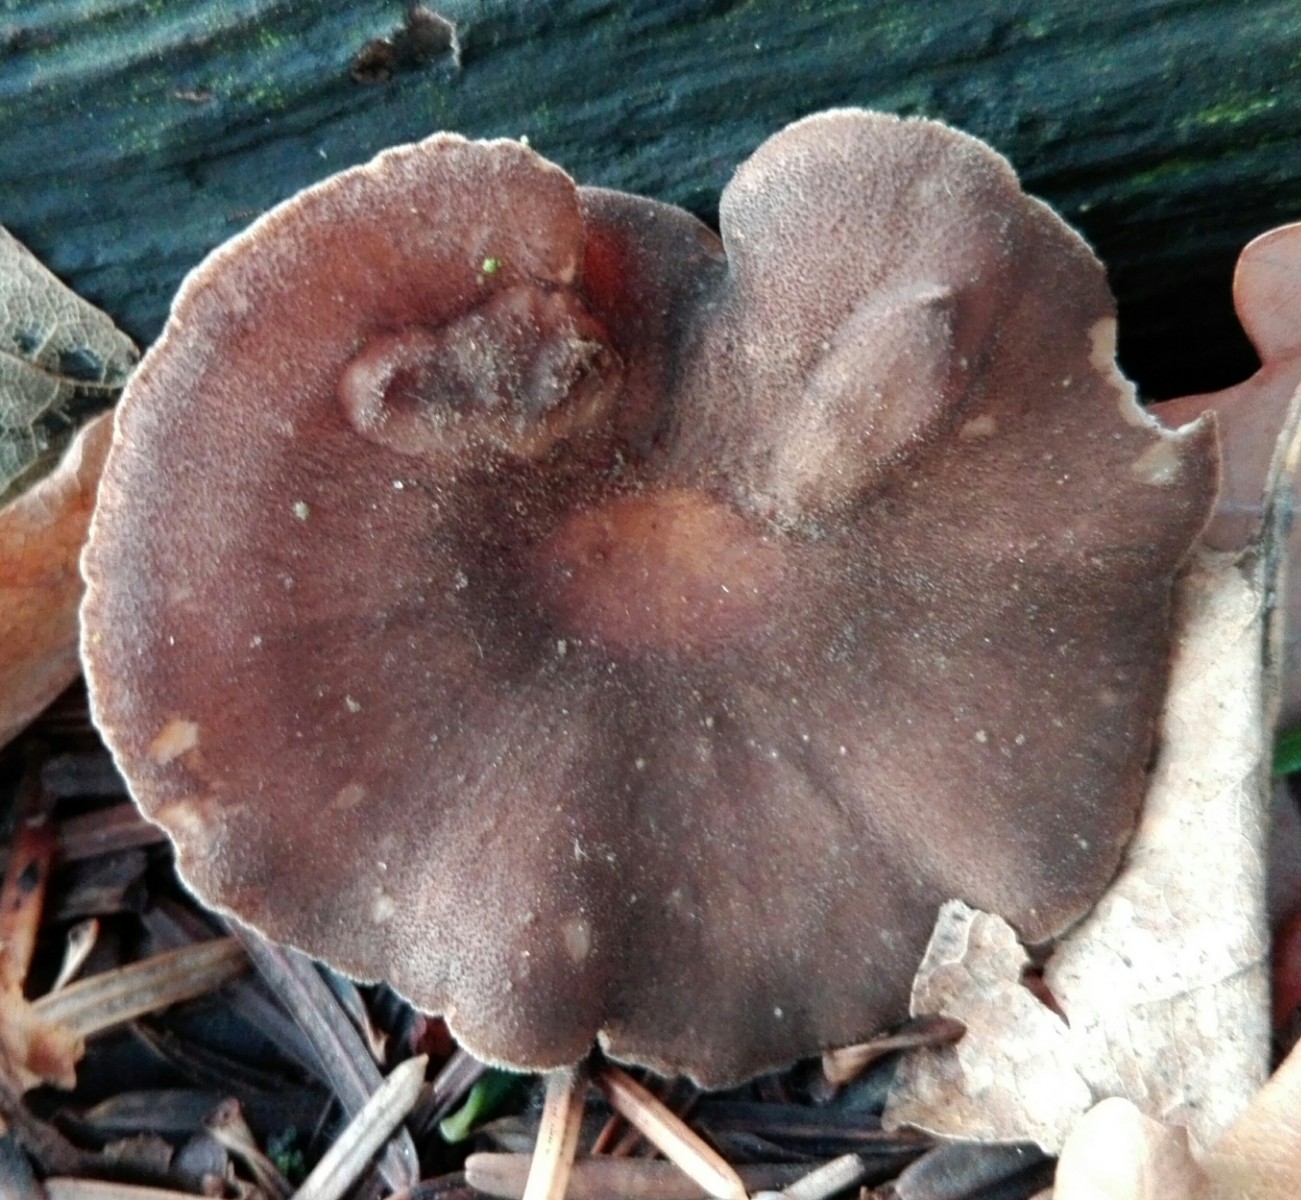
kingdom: Fungi
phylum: Basidiomycota
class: Agaricomycetes
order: Polyporales
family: Polyporaceae
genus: Lentinus
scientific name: Lentinus brumalis
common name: vinter-stilkporesvamp
